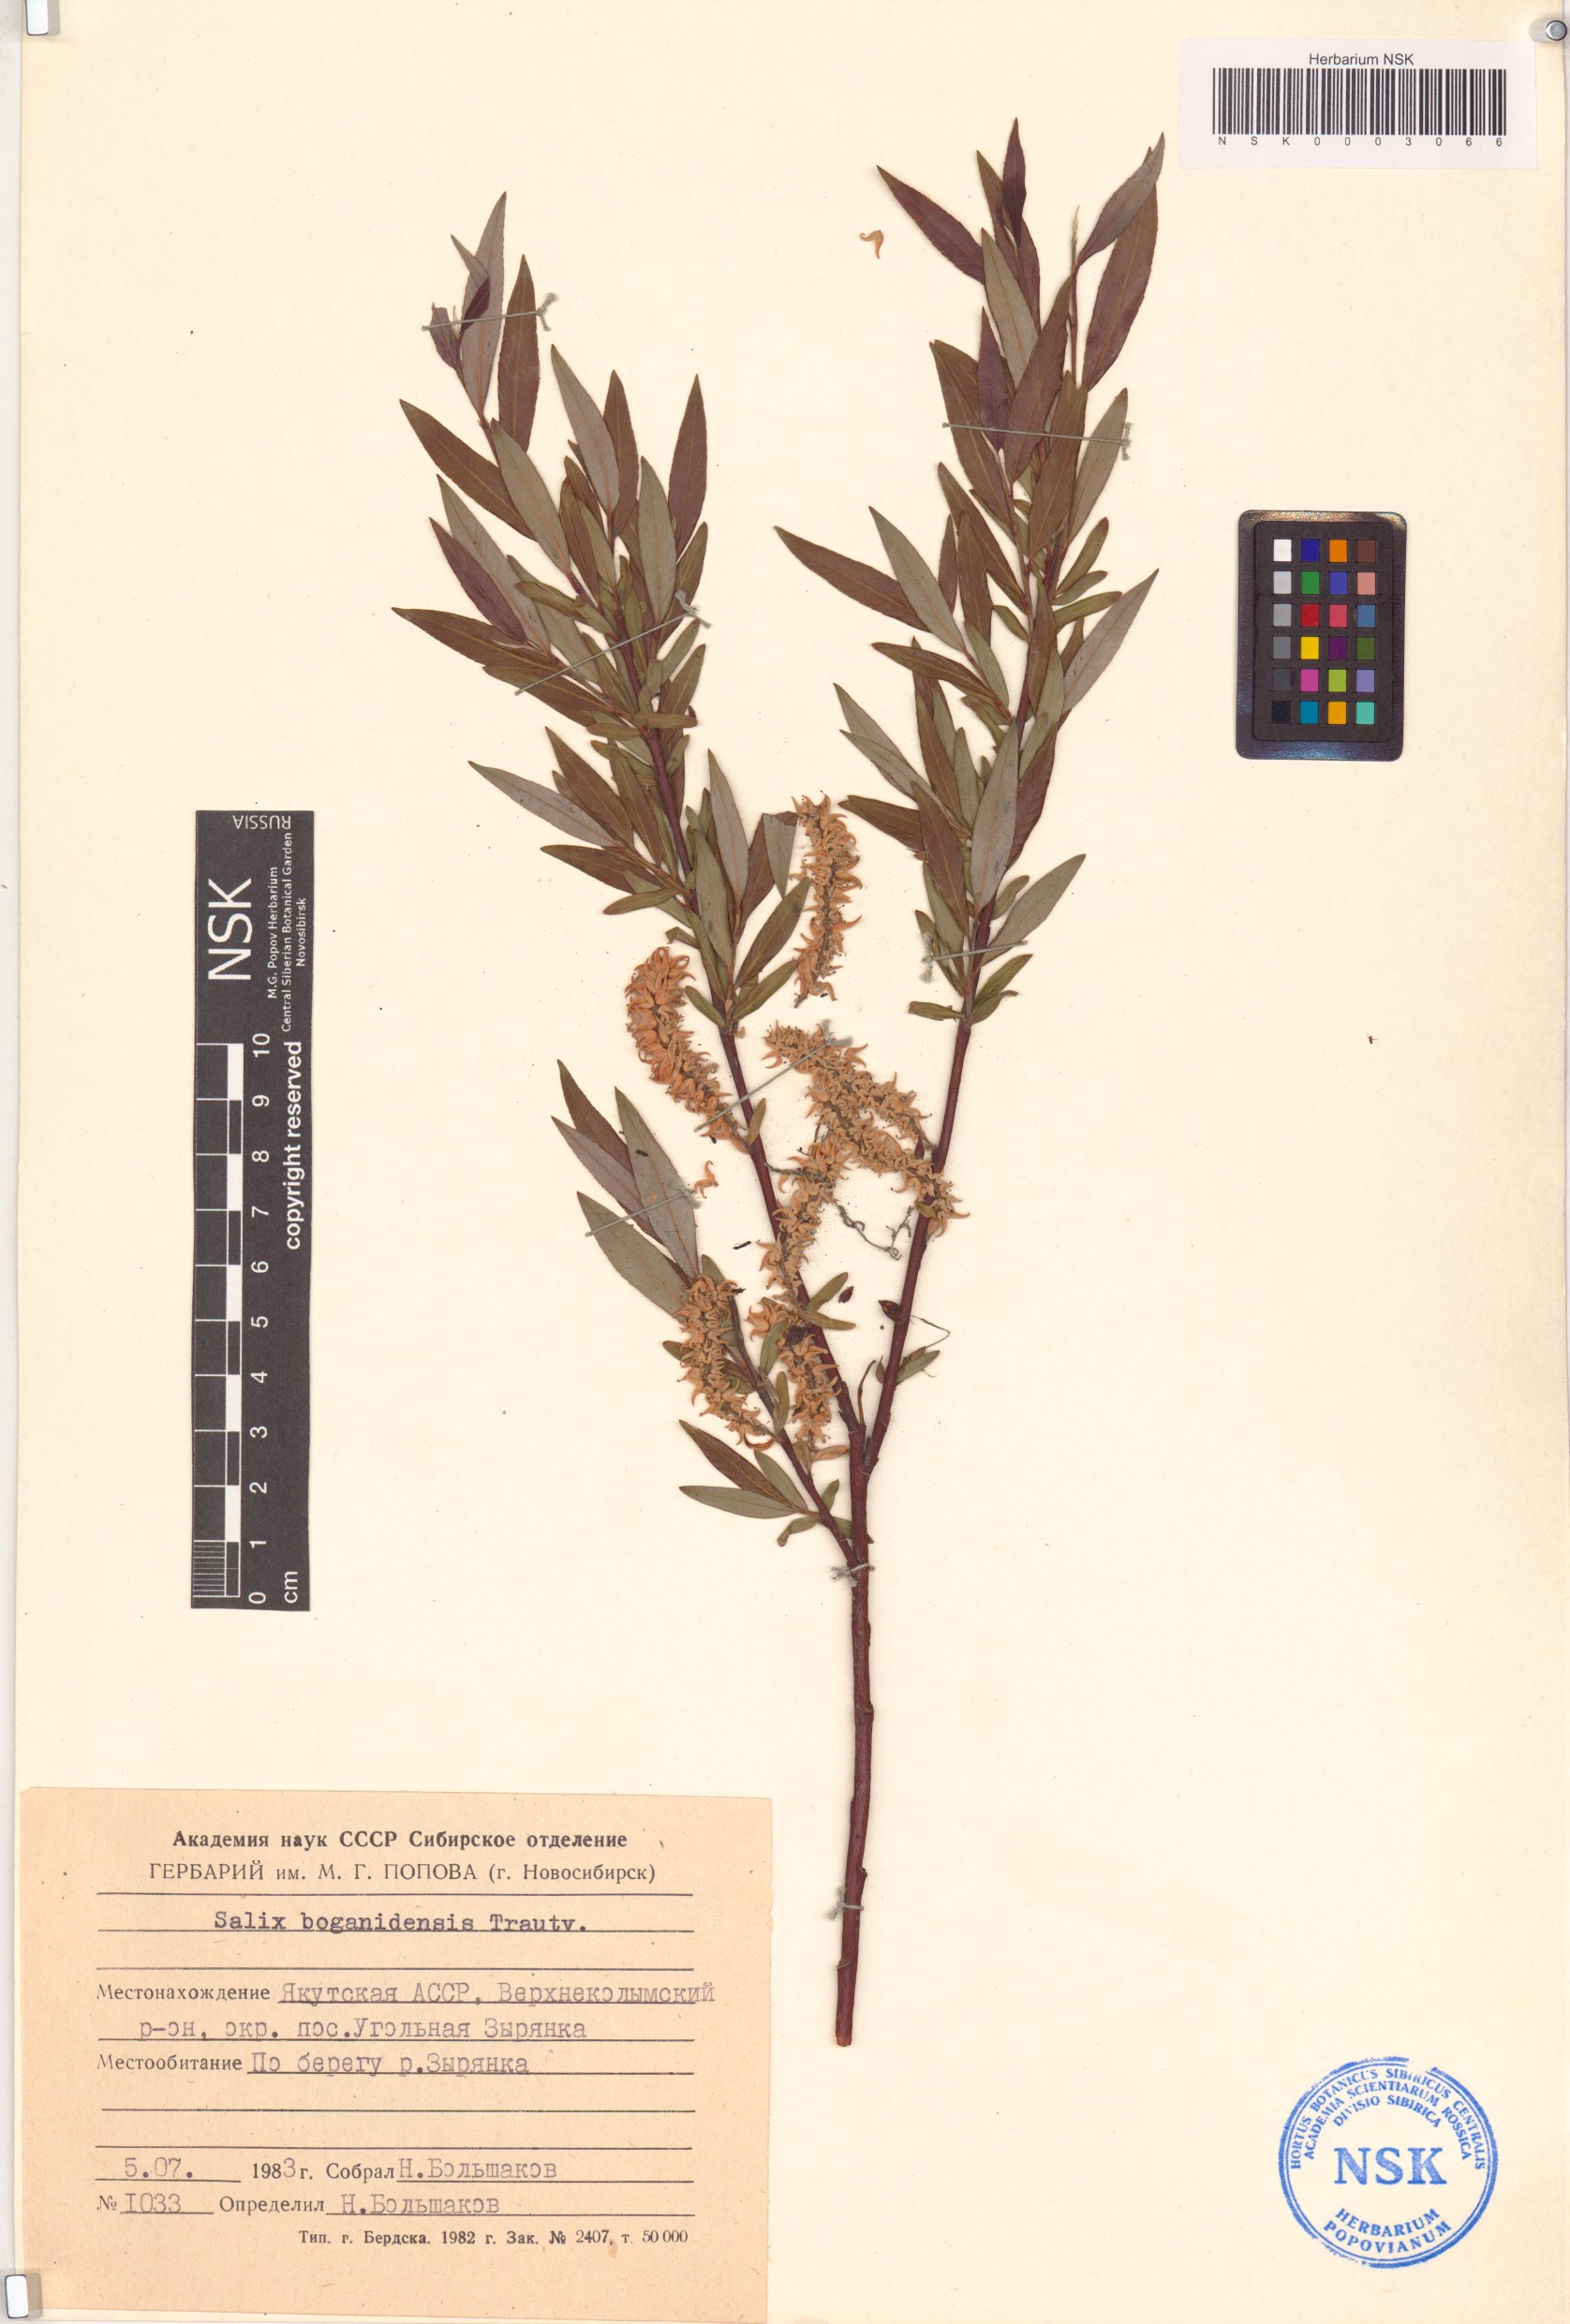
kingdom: Plantae
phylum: Tracheophyta
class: Magnoliopsida
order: Malpighiales
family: Salicaceae
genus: Salix
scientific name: Salix boganidensis
